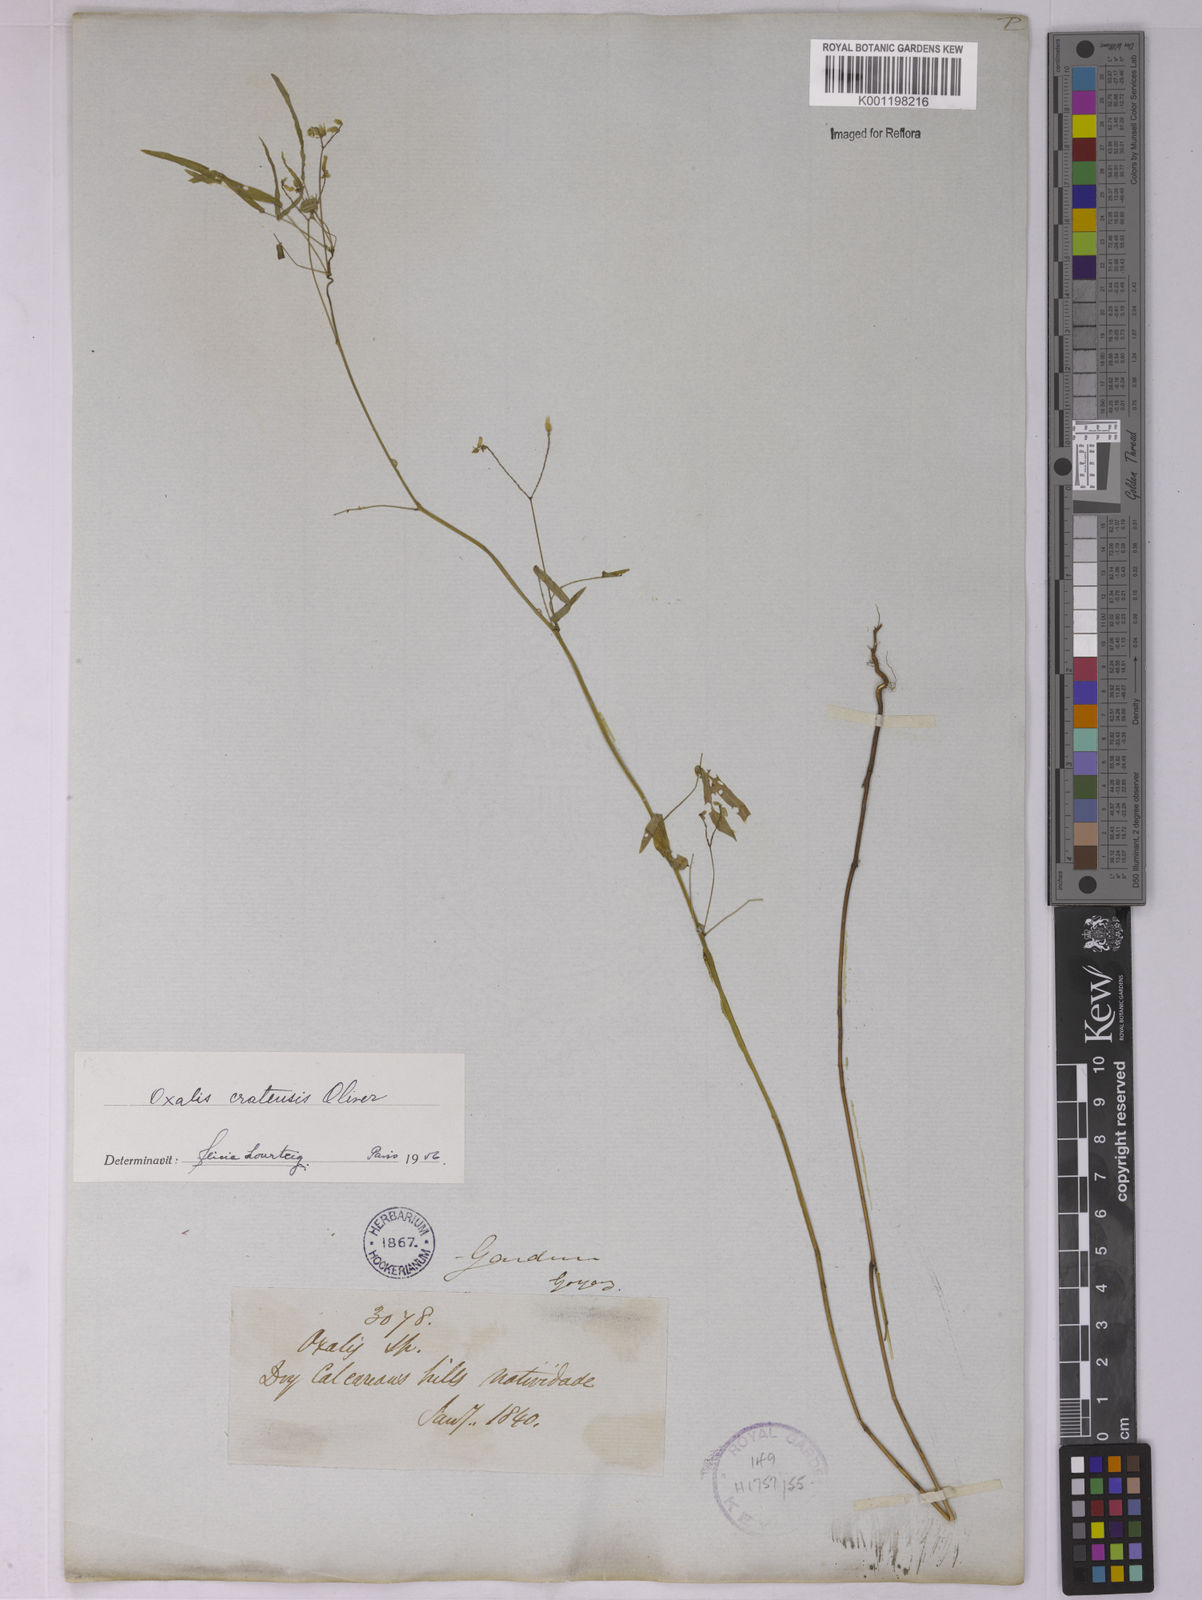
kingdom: Plantae
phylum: Tracheophyta
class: Magnoliopsida
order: Oxalidales
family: Oxalidaceae
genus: Oxalis
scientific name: Oxalis cratensis
